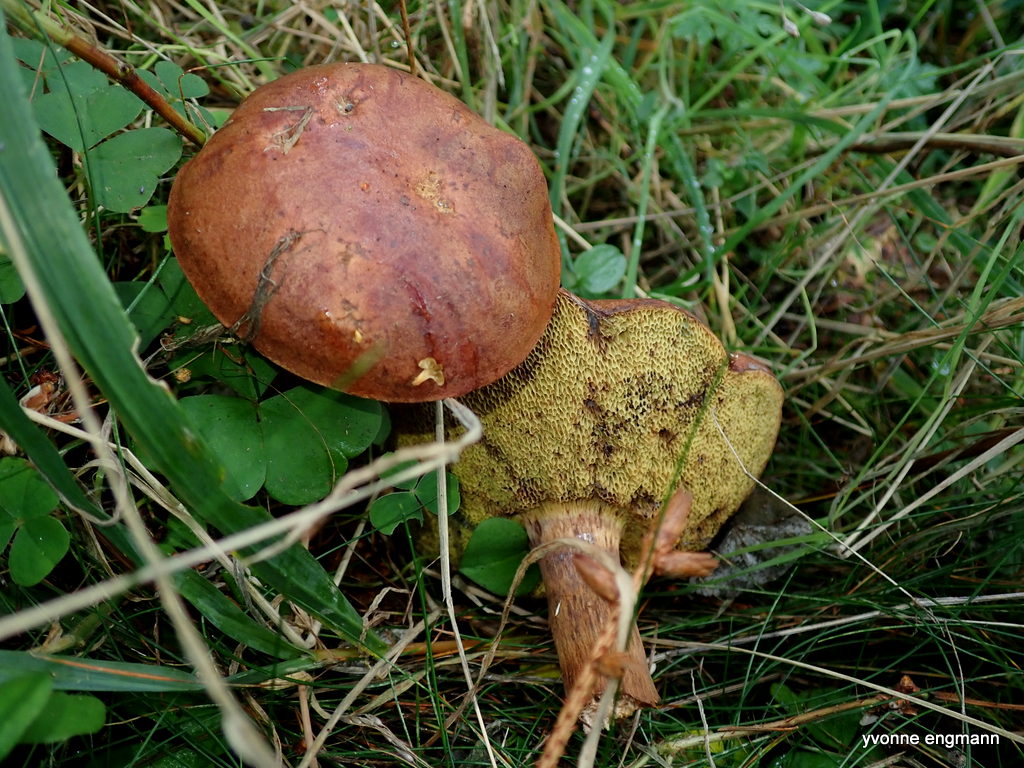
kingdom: Fungi
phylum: Basidiomycota
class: Agaricomycetes
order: Boletales
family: Boletaceae
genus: Imleria
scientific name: Imleria badia
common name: brunstokket rørhat
